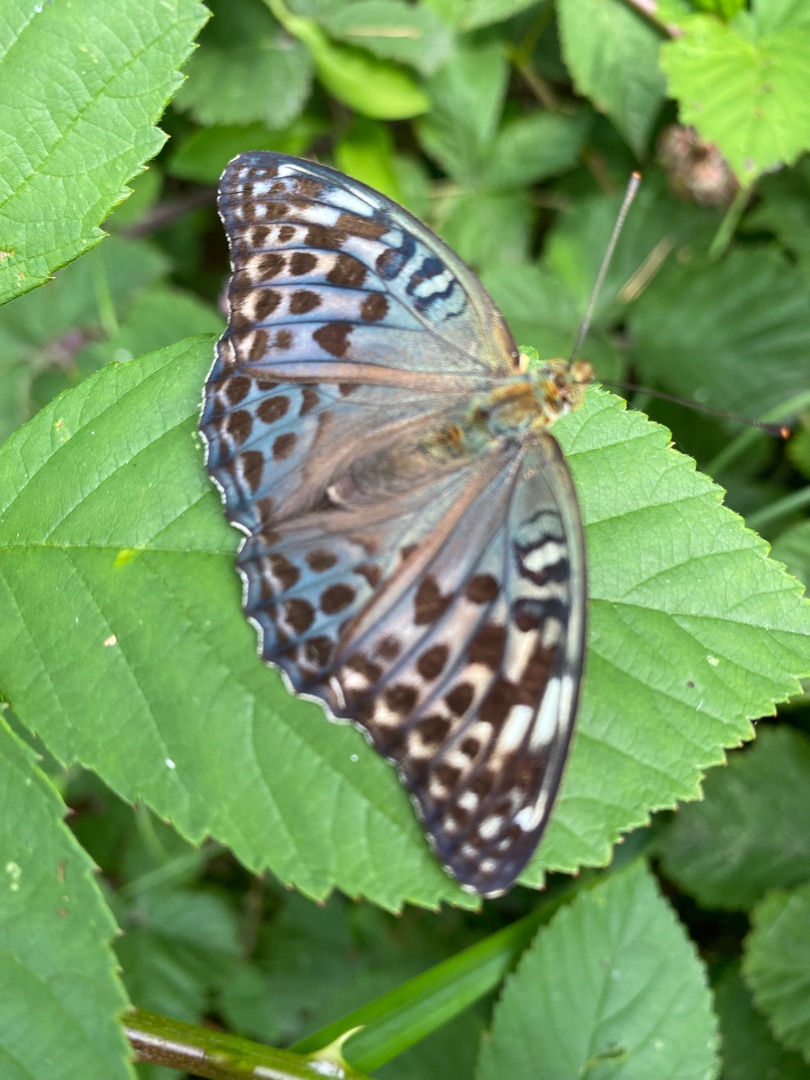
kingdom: Animalia
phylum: Arthropoda
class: Insecta
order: Lepidoptera
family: Nymphalidae
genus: Argynnis
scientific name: Argynnis paphia
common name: Kejserkåbe
